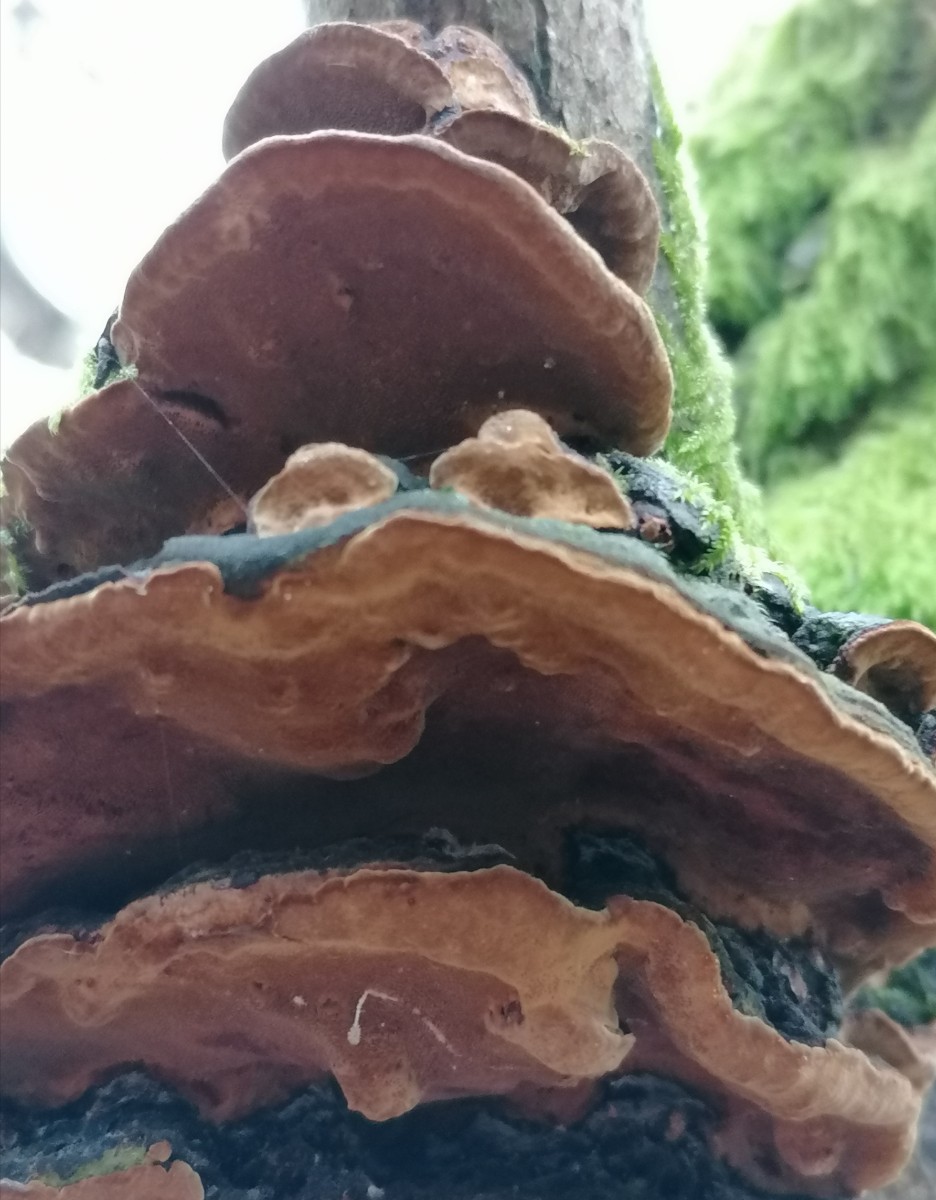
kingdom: Fungi
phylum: Basidiomycota
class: Agaricomycetes
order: Hymenochaetales
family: Hymenochaetaceae
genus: Phellinopsis
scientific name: Phellinopsis conchata
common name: pile-ildporesvamp
